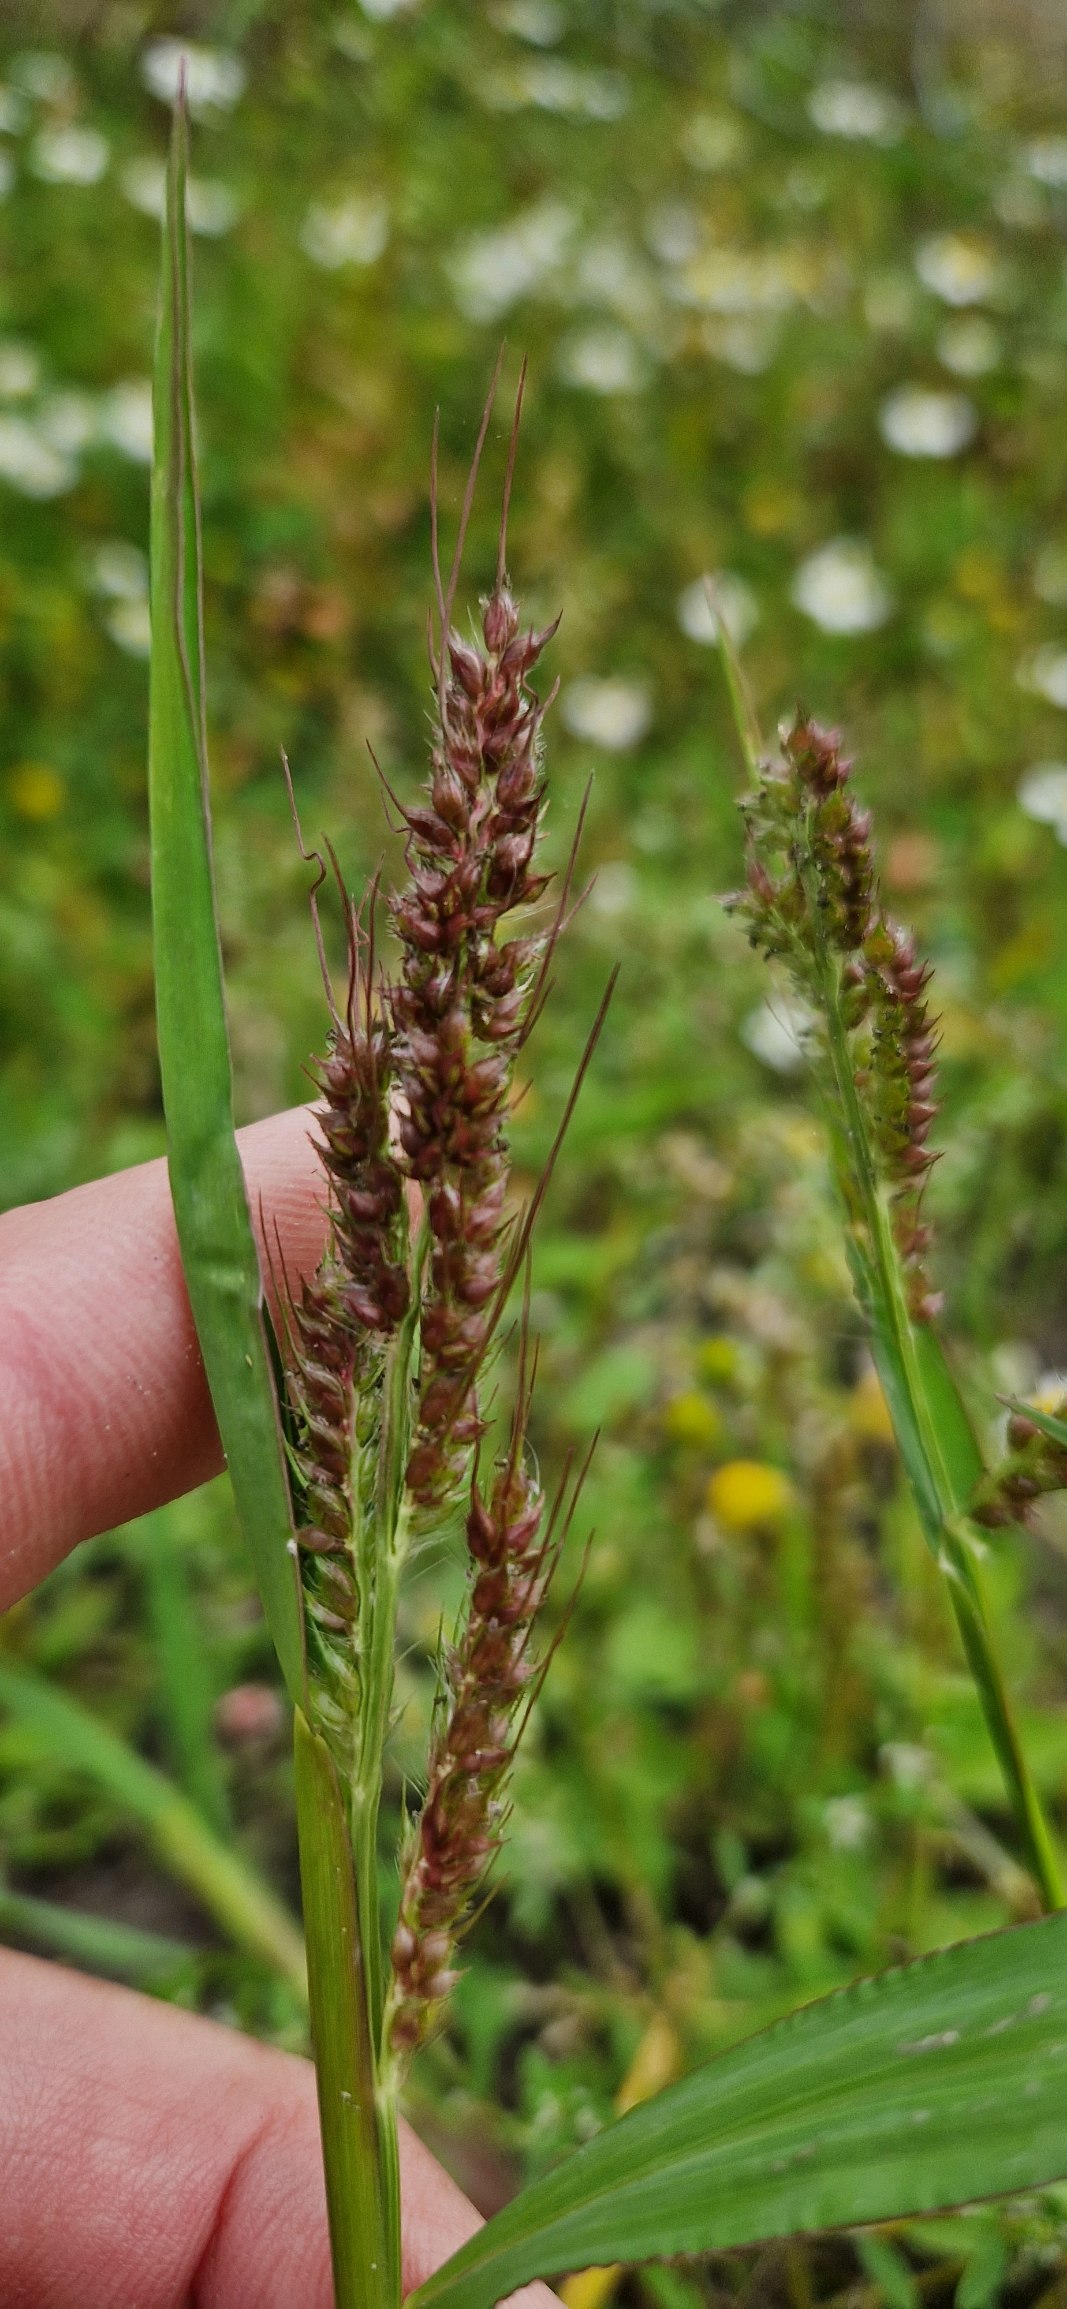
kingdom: Plantae
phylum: Tracheophyta
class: Liliopsida
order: Poales
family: Poaceae
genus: Echinochloa
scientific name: Echinochloa crus-galli
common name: Almindelig hanespore
